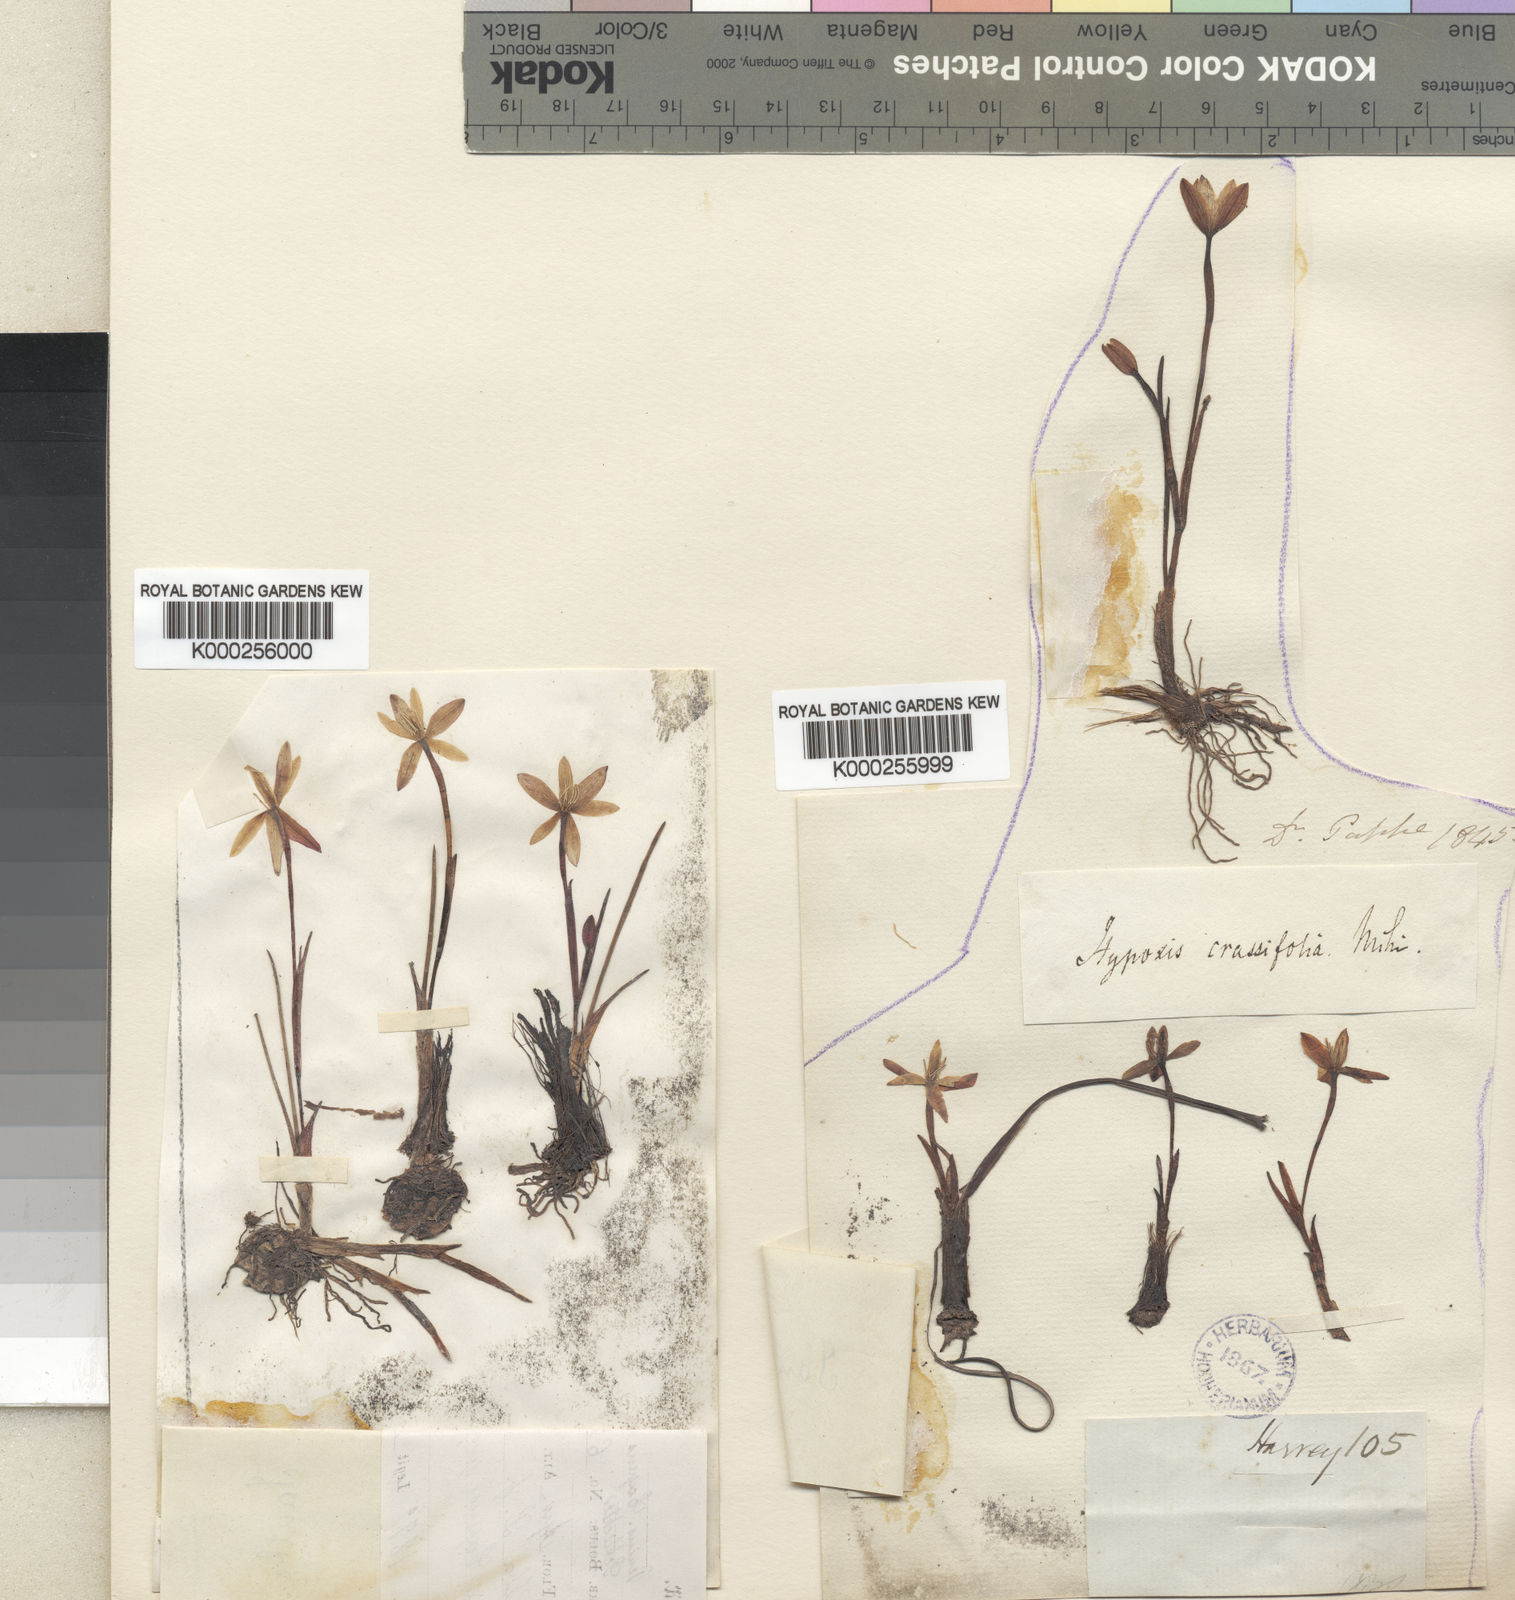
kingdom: Plantae
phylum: Tracheophyta
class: Liliopsida
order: Asparagales
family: Hypoxidaceae
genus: Pauridia
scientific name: Pauridia alba
